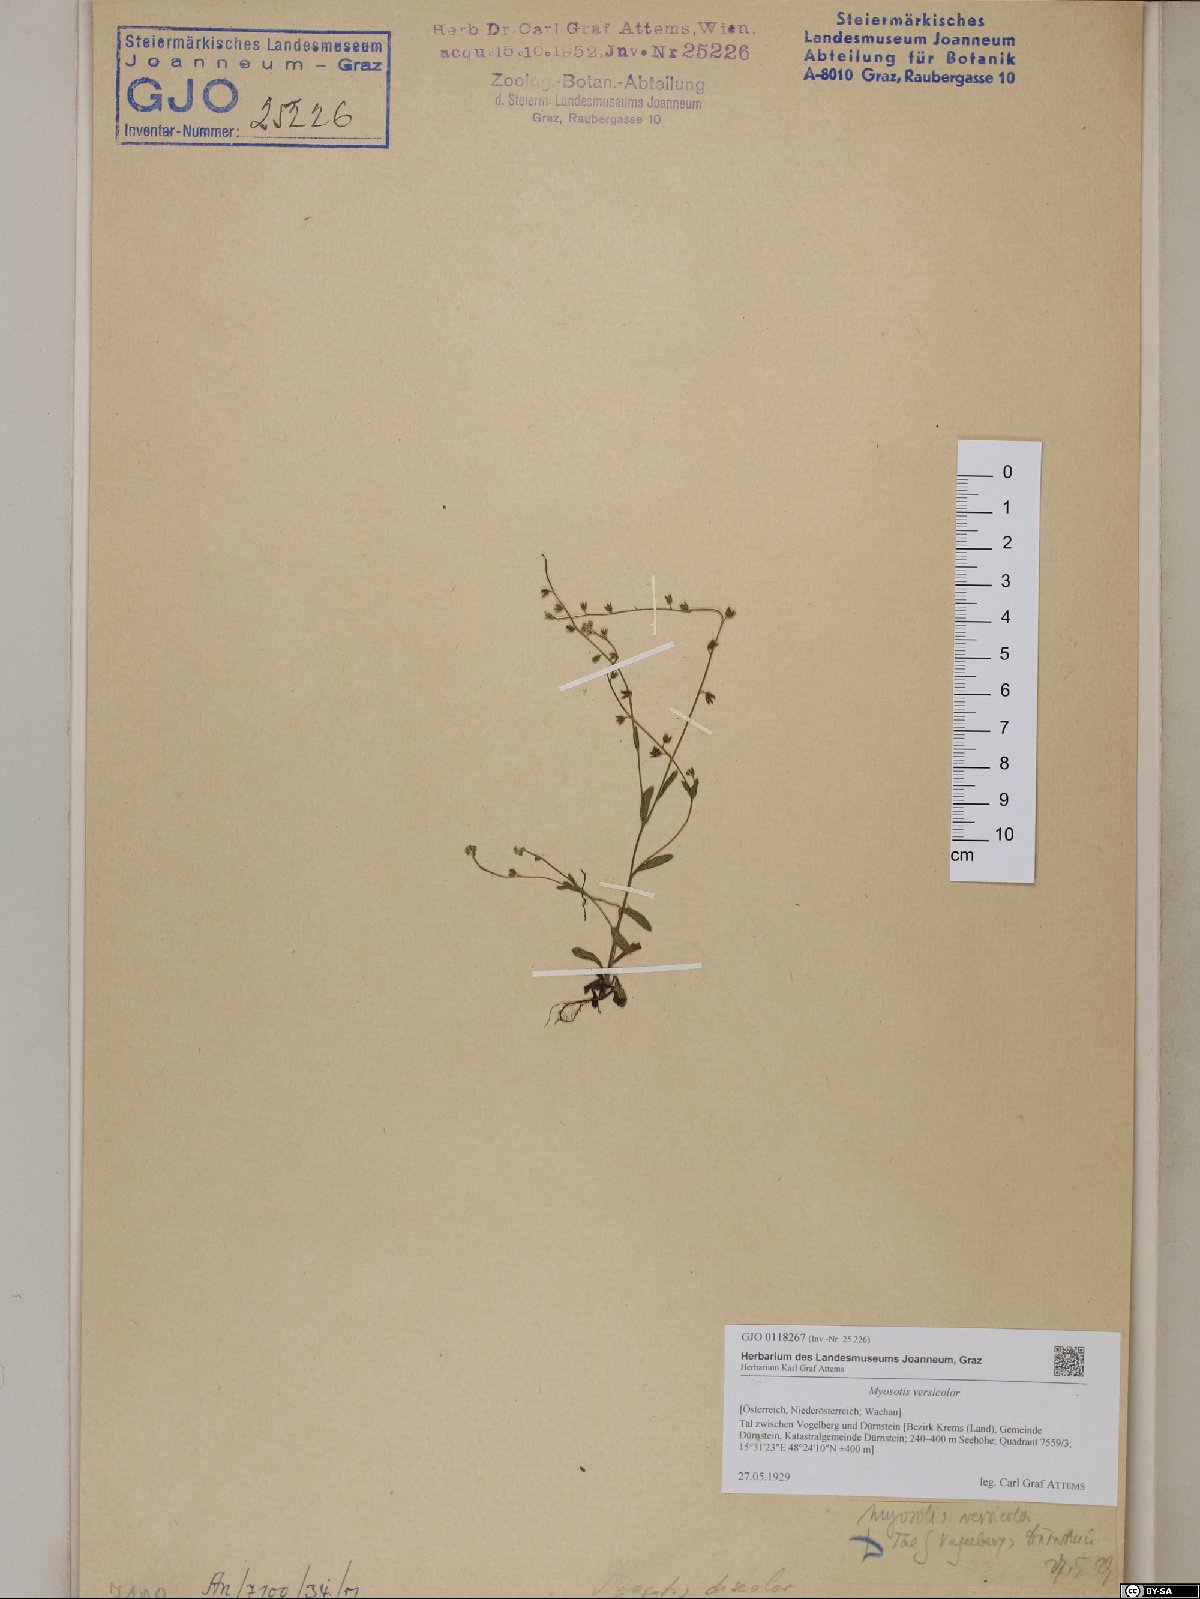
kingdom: Plantae
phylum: Tracheophyta
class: Magnoliopsida
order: Boraginales
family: Boraginaceae
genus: Myosotis
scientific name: Myosotis discolor
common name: Changing forget-me-not
